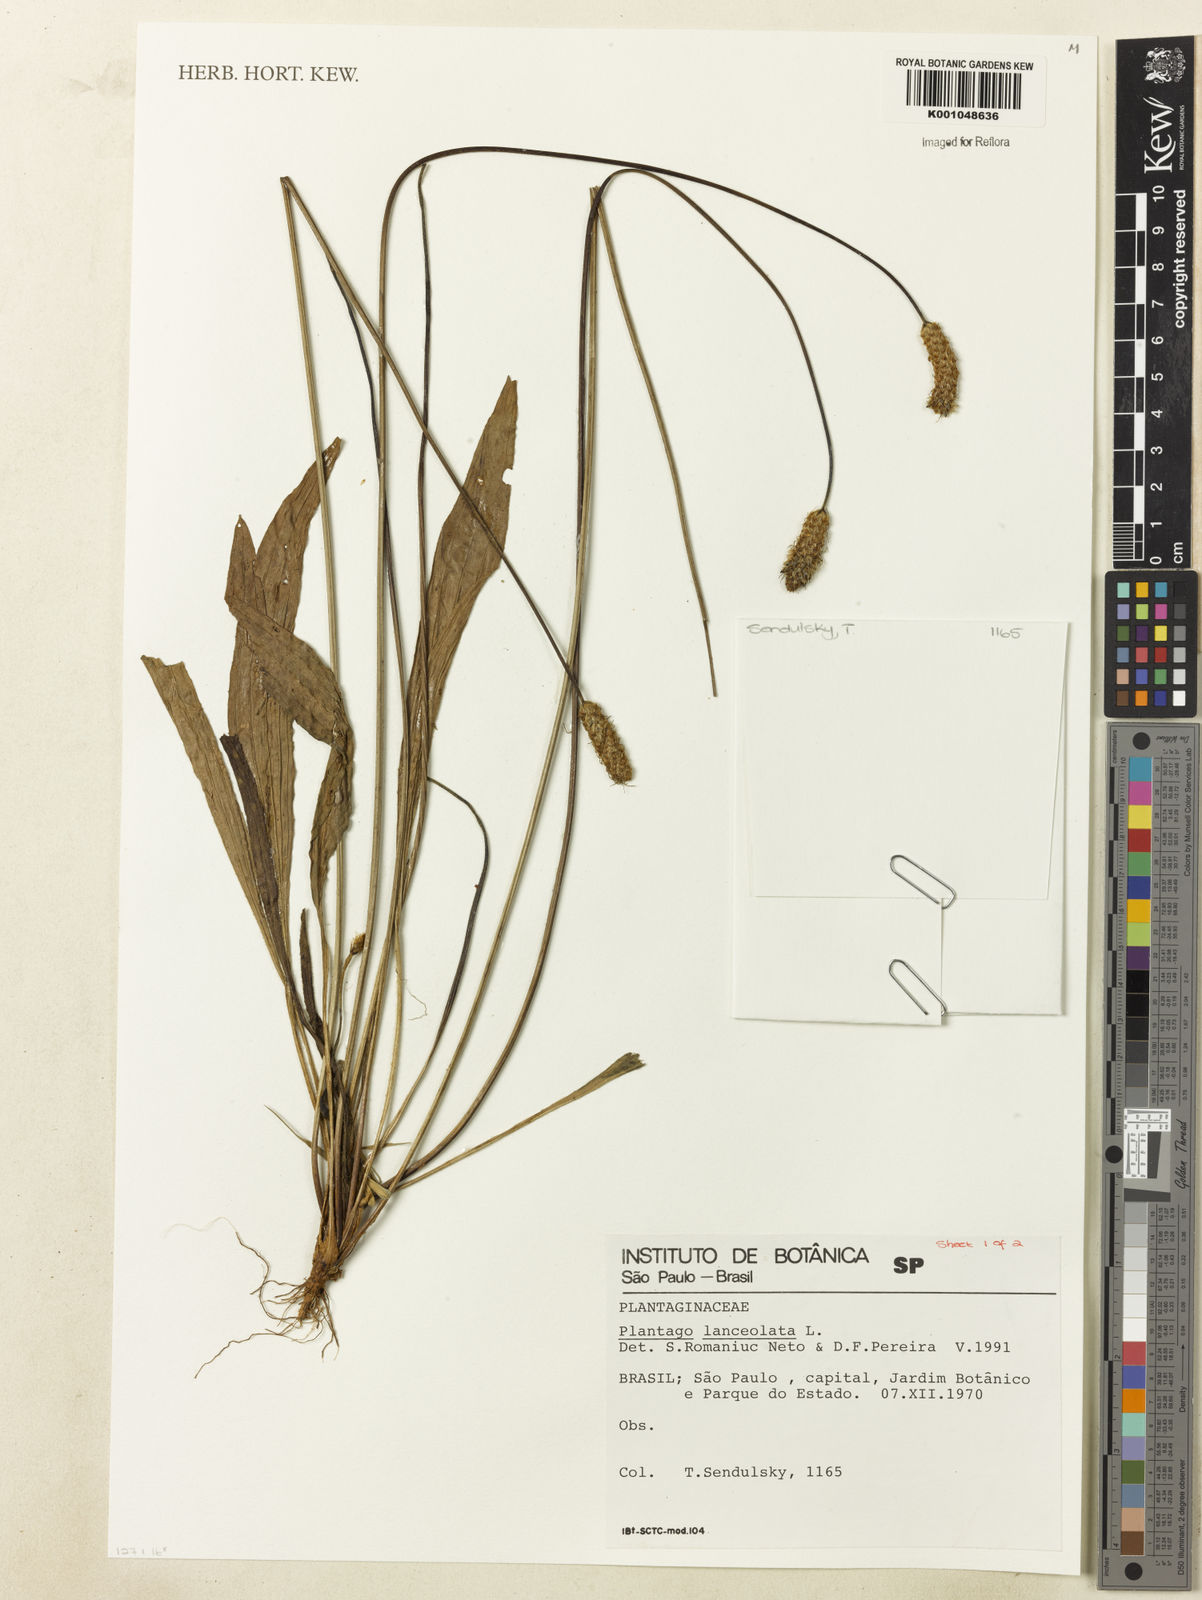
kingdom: Plantae
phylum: Tracheophyta
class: Magnoliopsida
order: Lamiales
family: Plantaginaceae
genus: Plantago
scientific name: Plantago lanceolata
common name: Ribwort plantain
